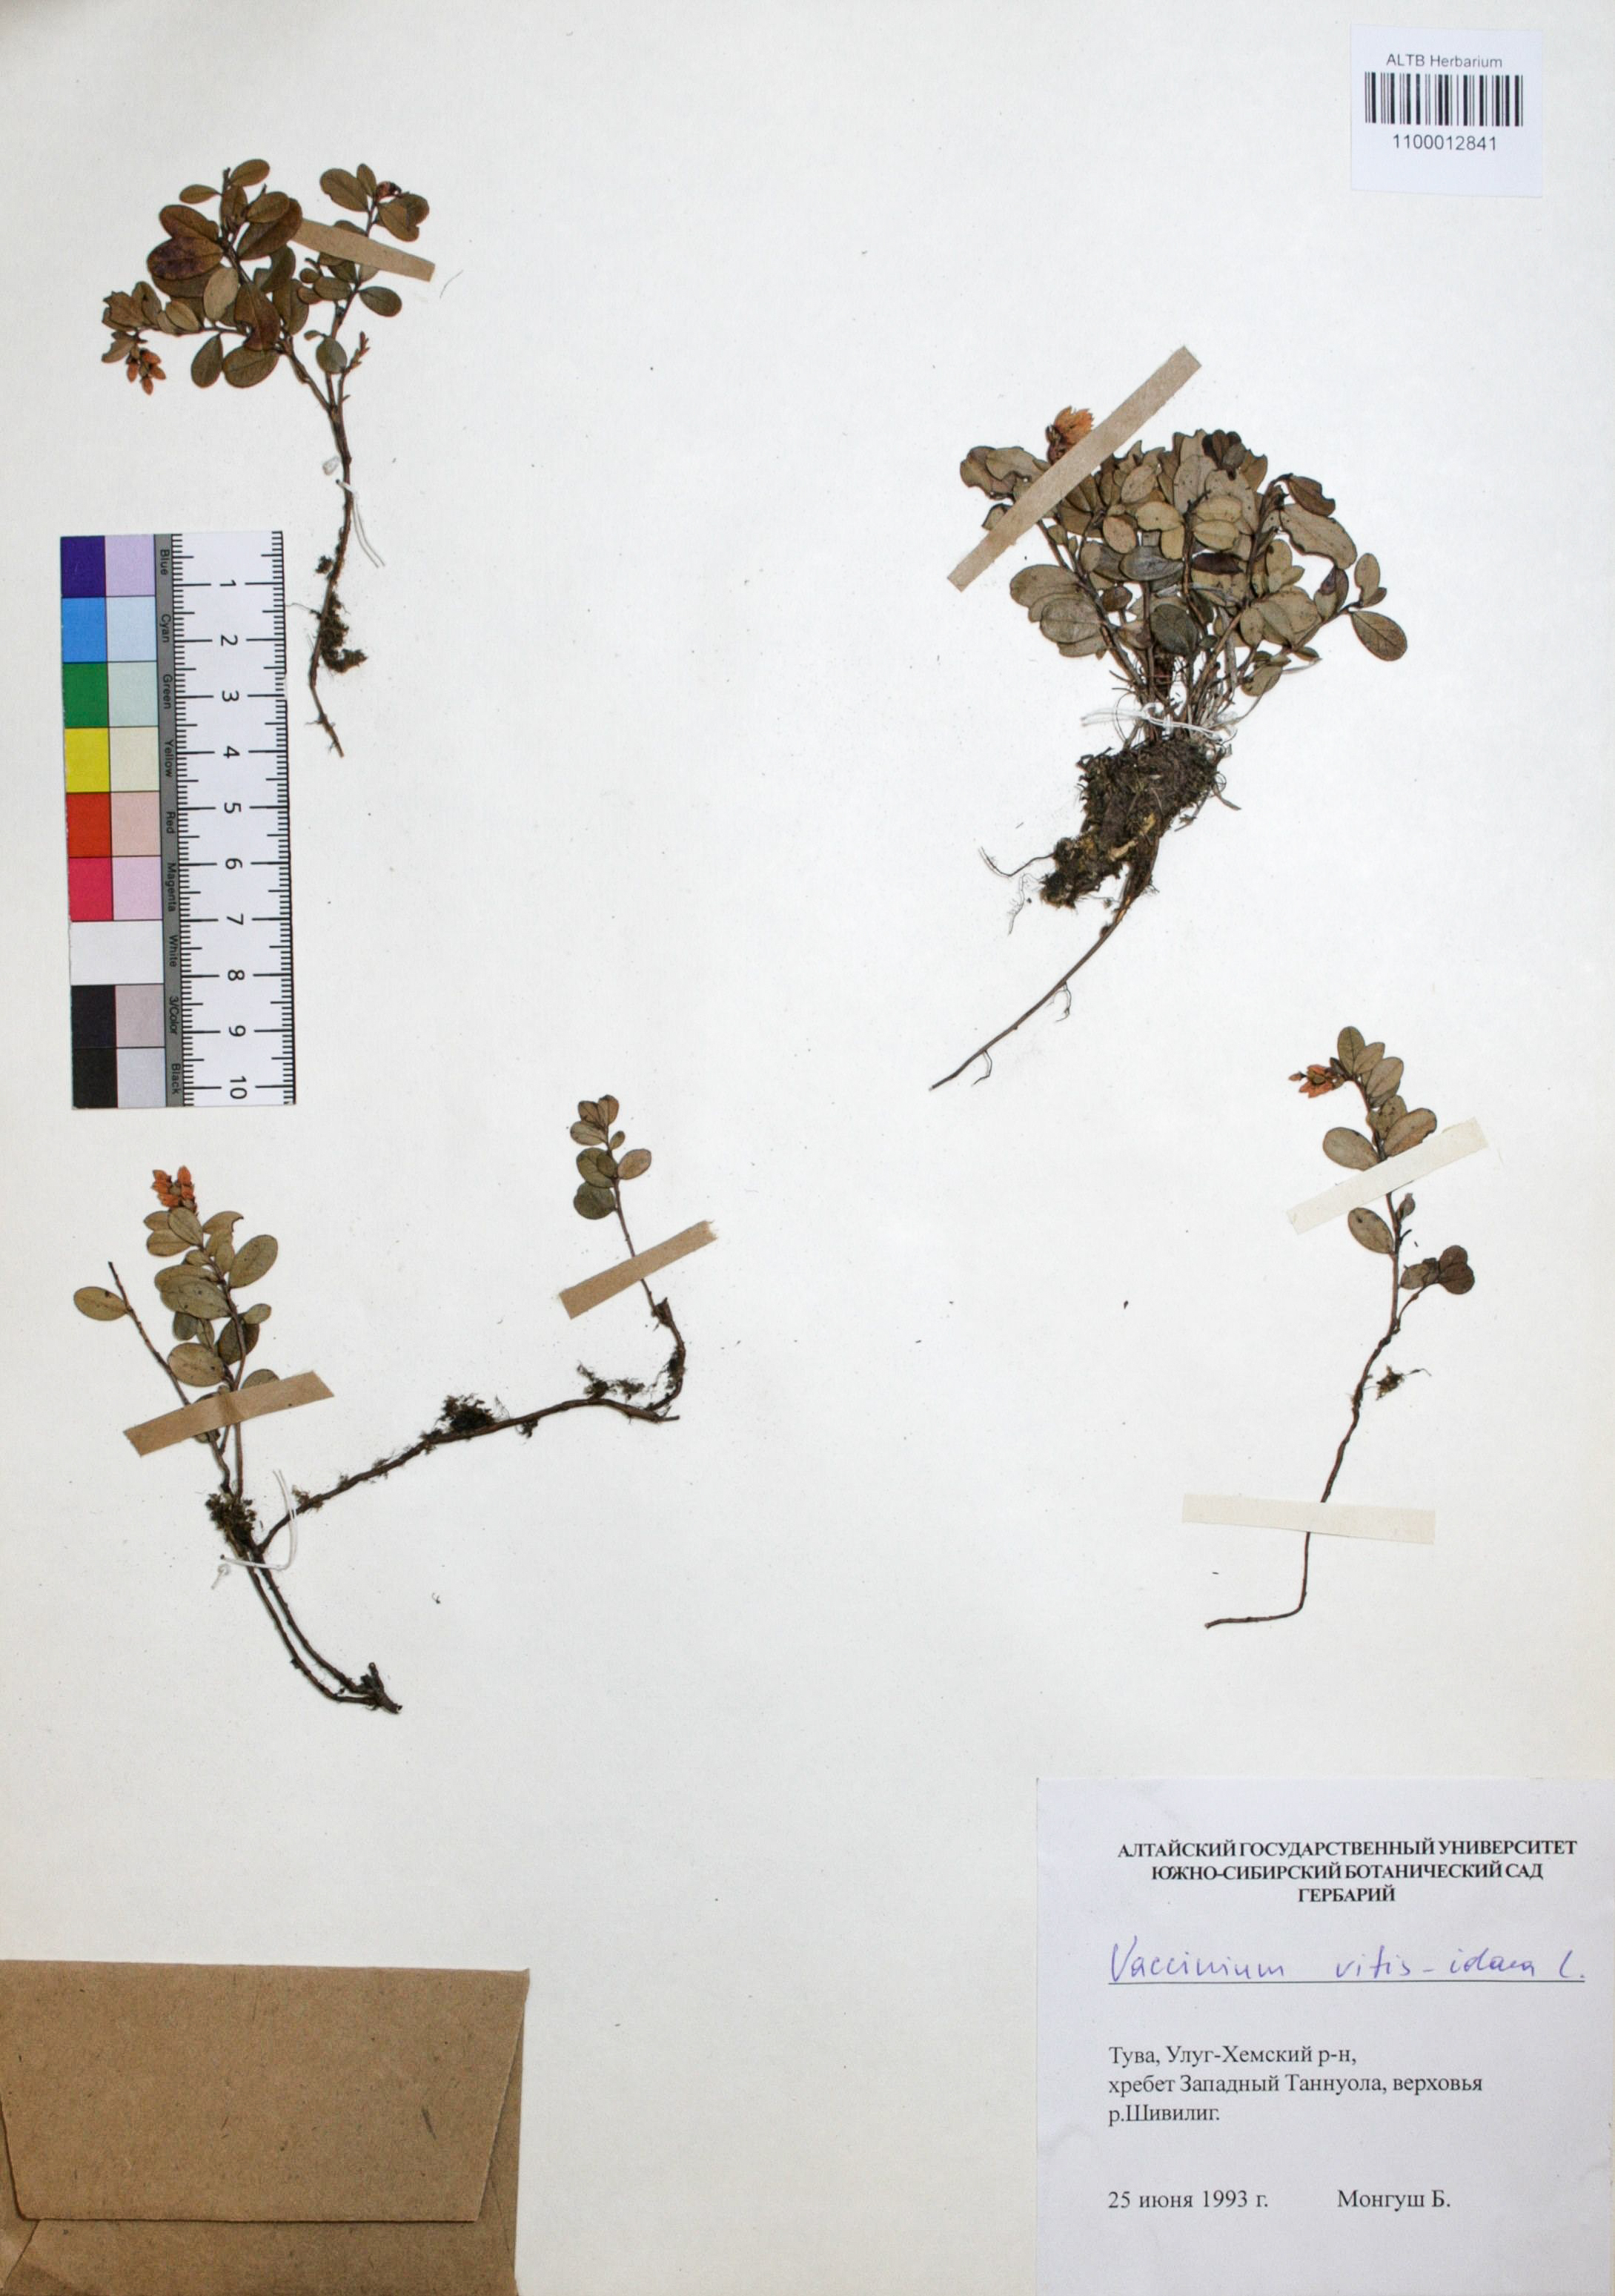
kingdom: Plantae
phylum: Tracheophyta
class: Magnoliopsida
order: Ericales
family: Ericaceae
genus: Vaccinium
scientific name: Vaccinium vitis-idaea
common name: Cowberry
